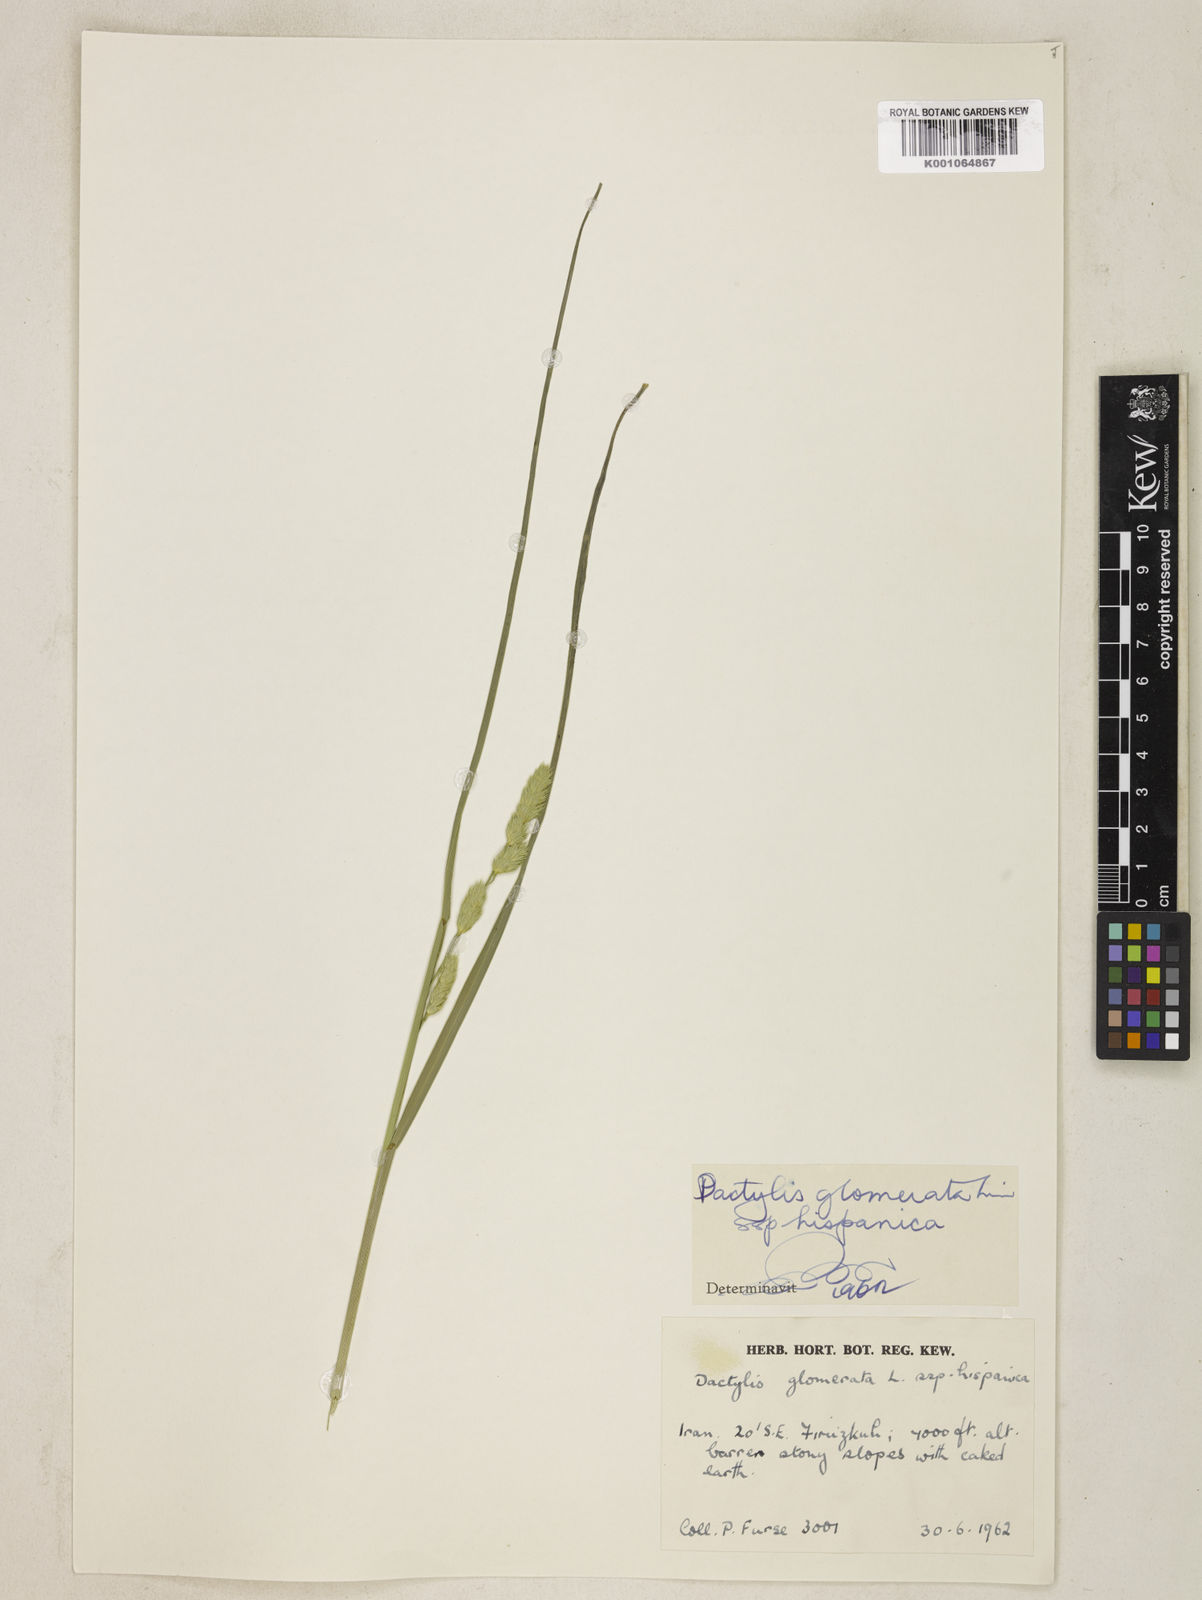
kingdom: Plantae
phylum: Tracheophyta
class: Liliopsida
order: Poales
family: Poaceae
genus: Dactylis
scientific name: Dactylis glomerata
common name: Orchardgrass
